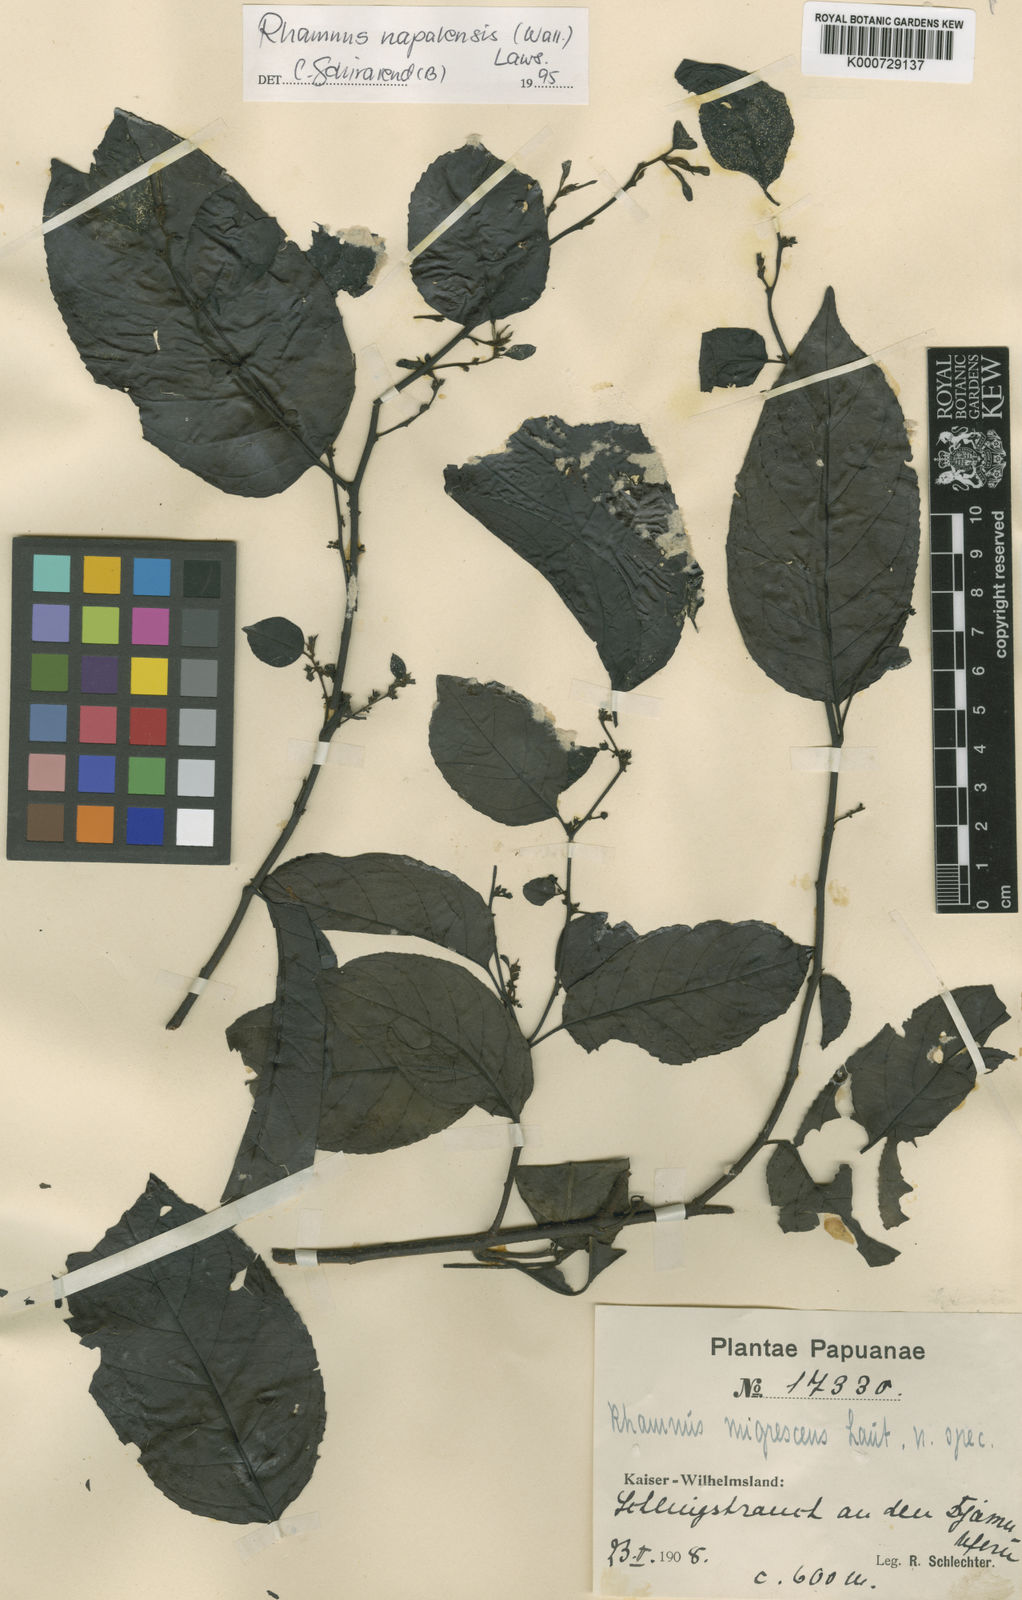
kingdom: Plantae
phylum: Tracheophyta
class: Magnoliopsida
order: Rosales
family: Rhamnaceae
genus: Rhamnus
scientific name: Rhamnus napalensis
